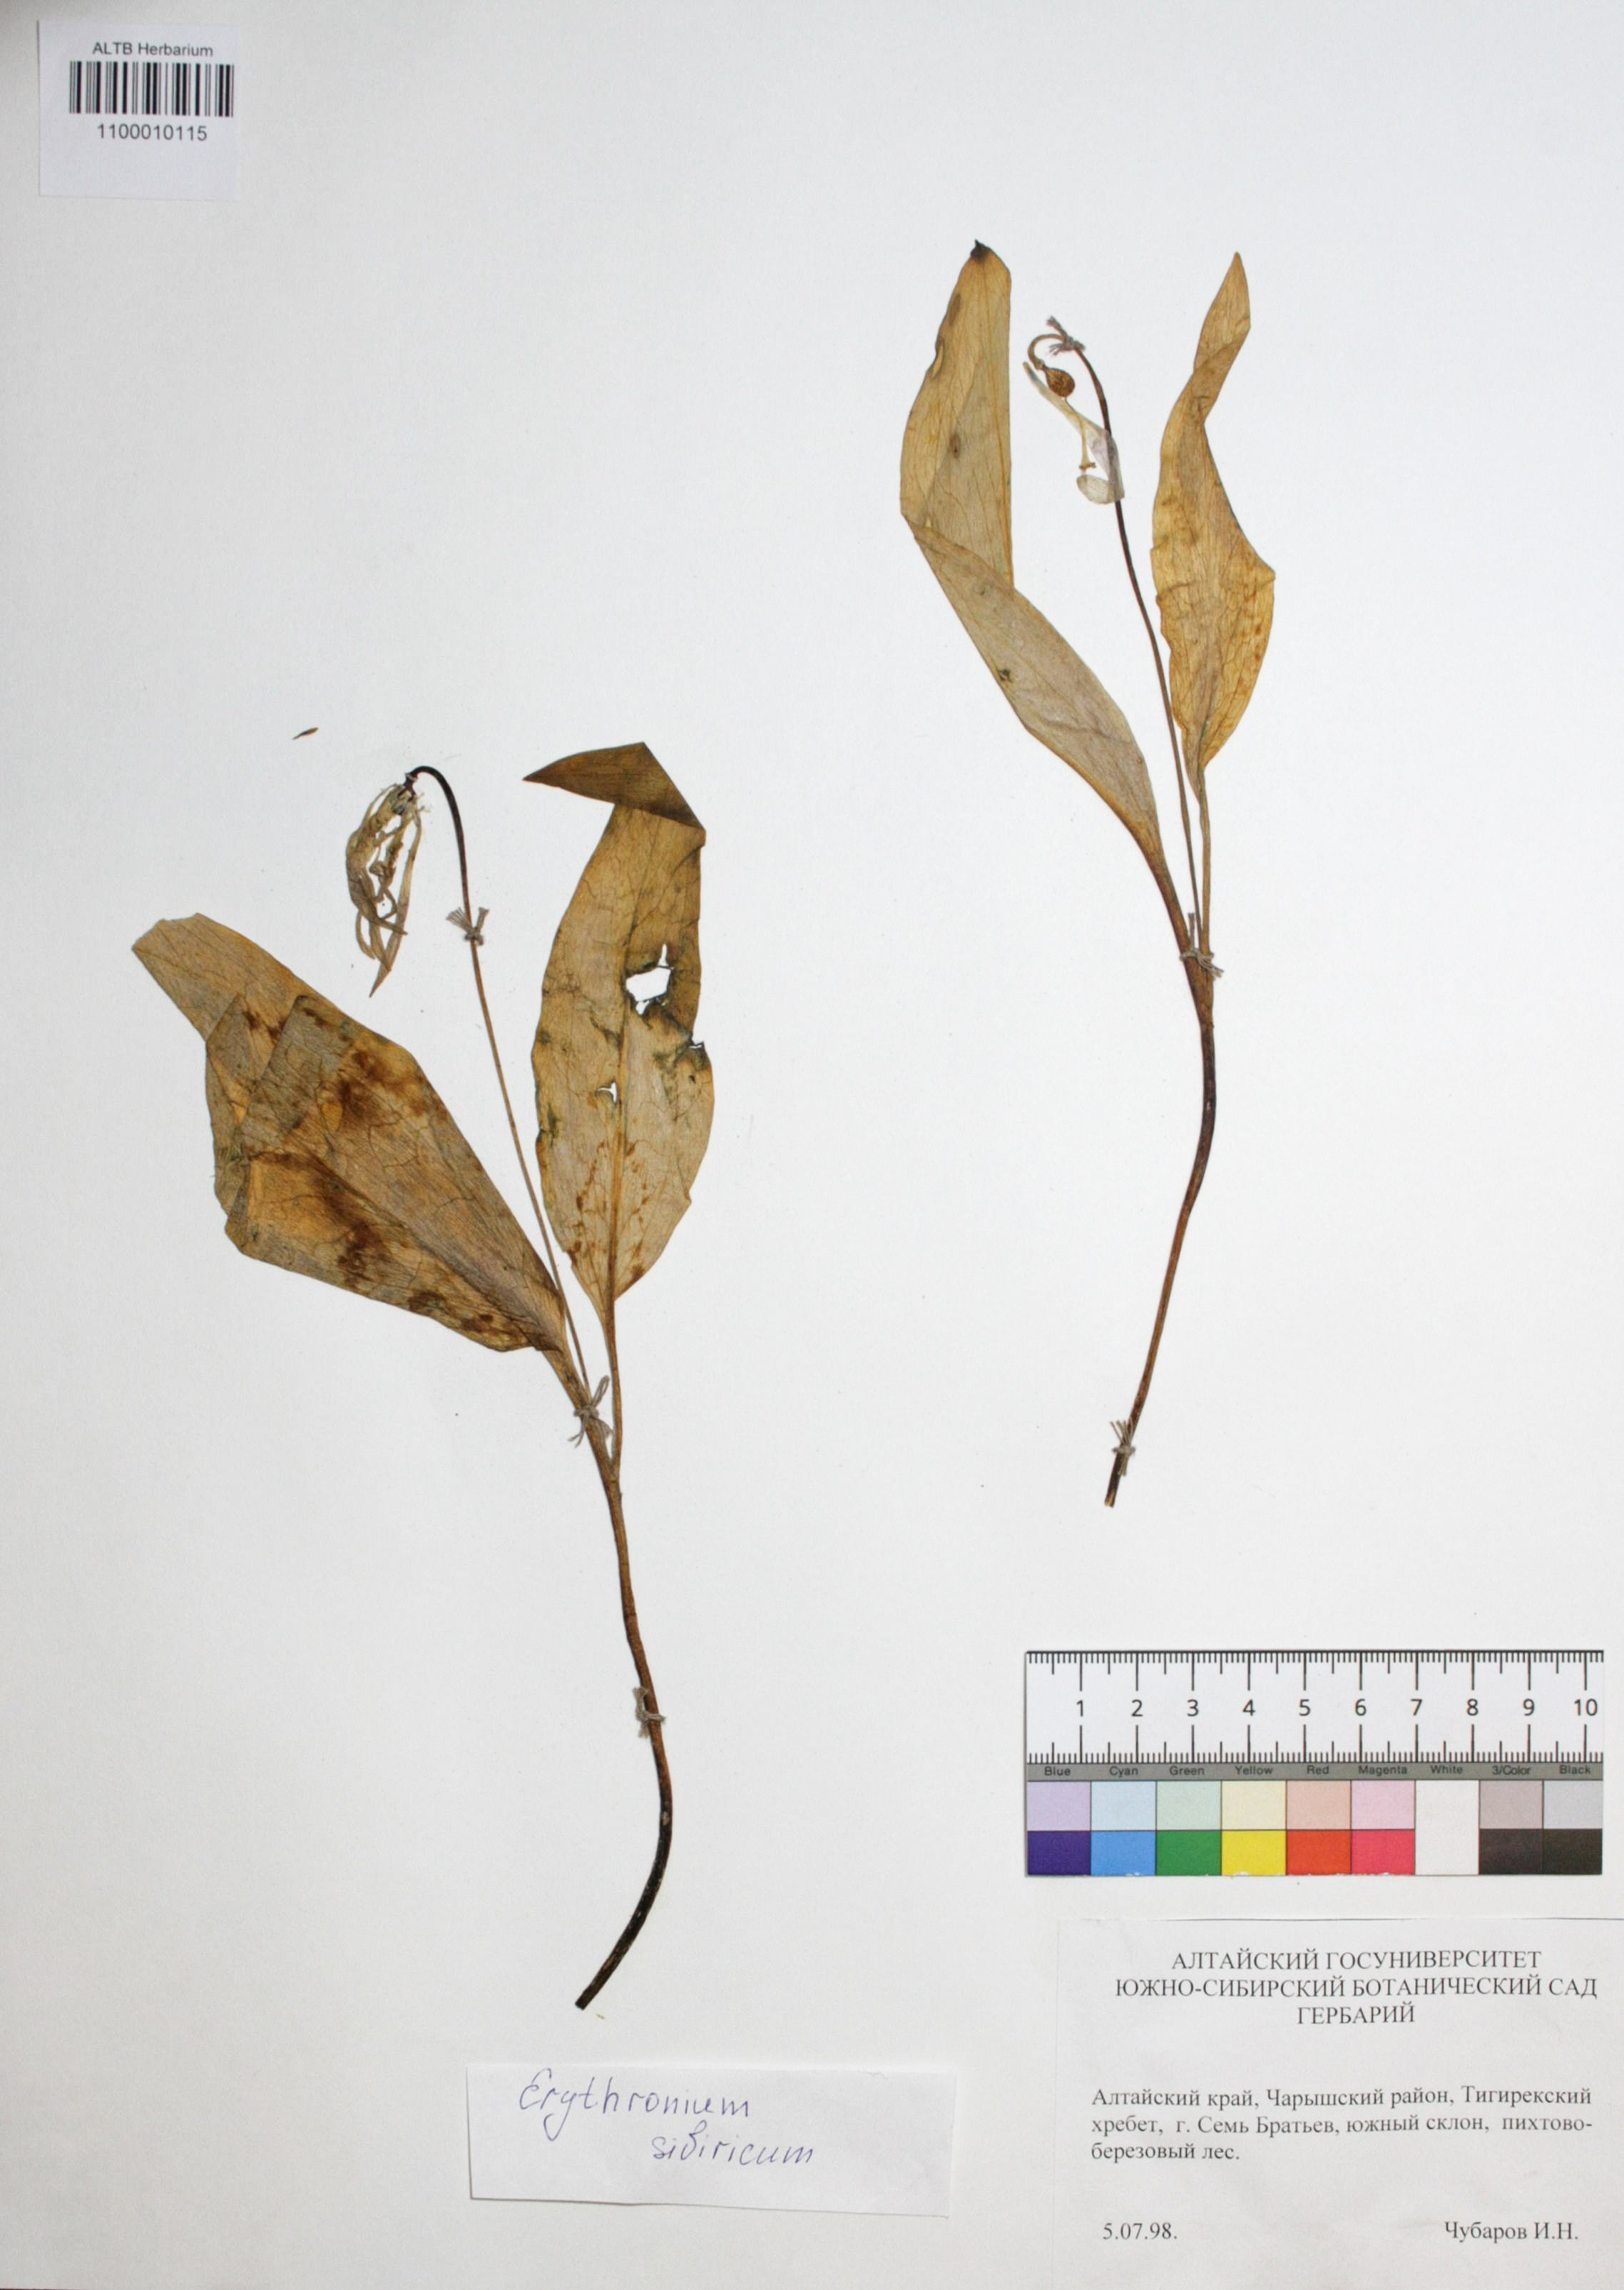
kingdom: Plantae
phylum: Tracheophyta
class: Liliopsida
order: Liliales
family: Liliaceae
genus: Erythronium
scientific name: Erythronium sibiricum
